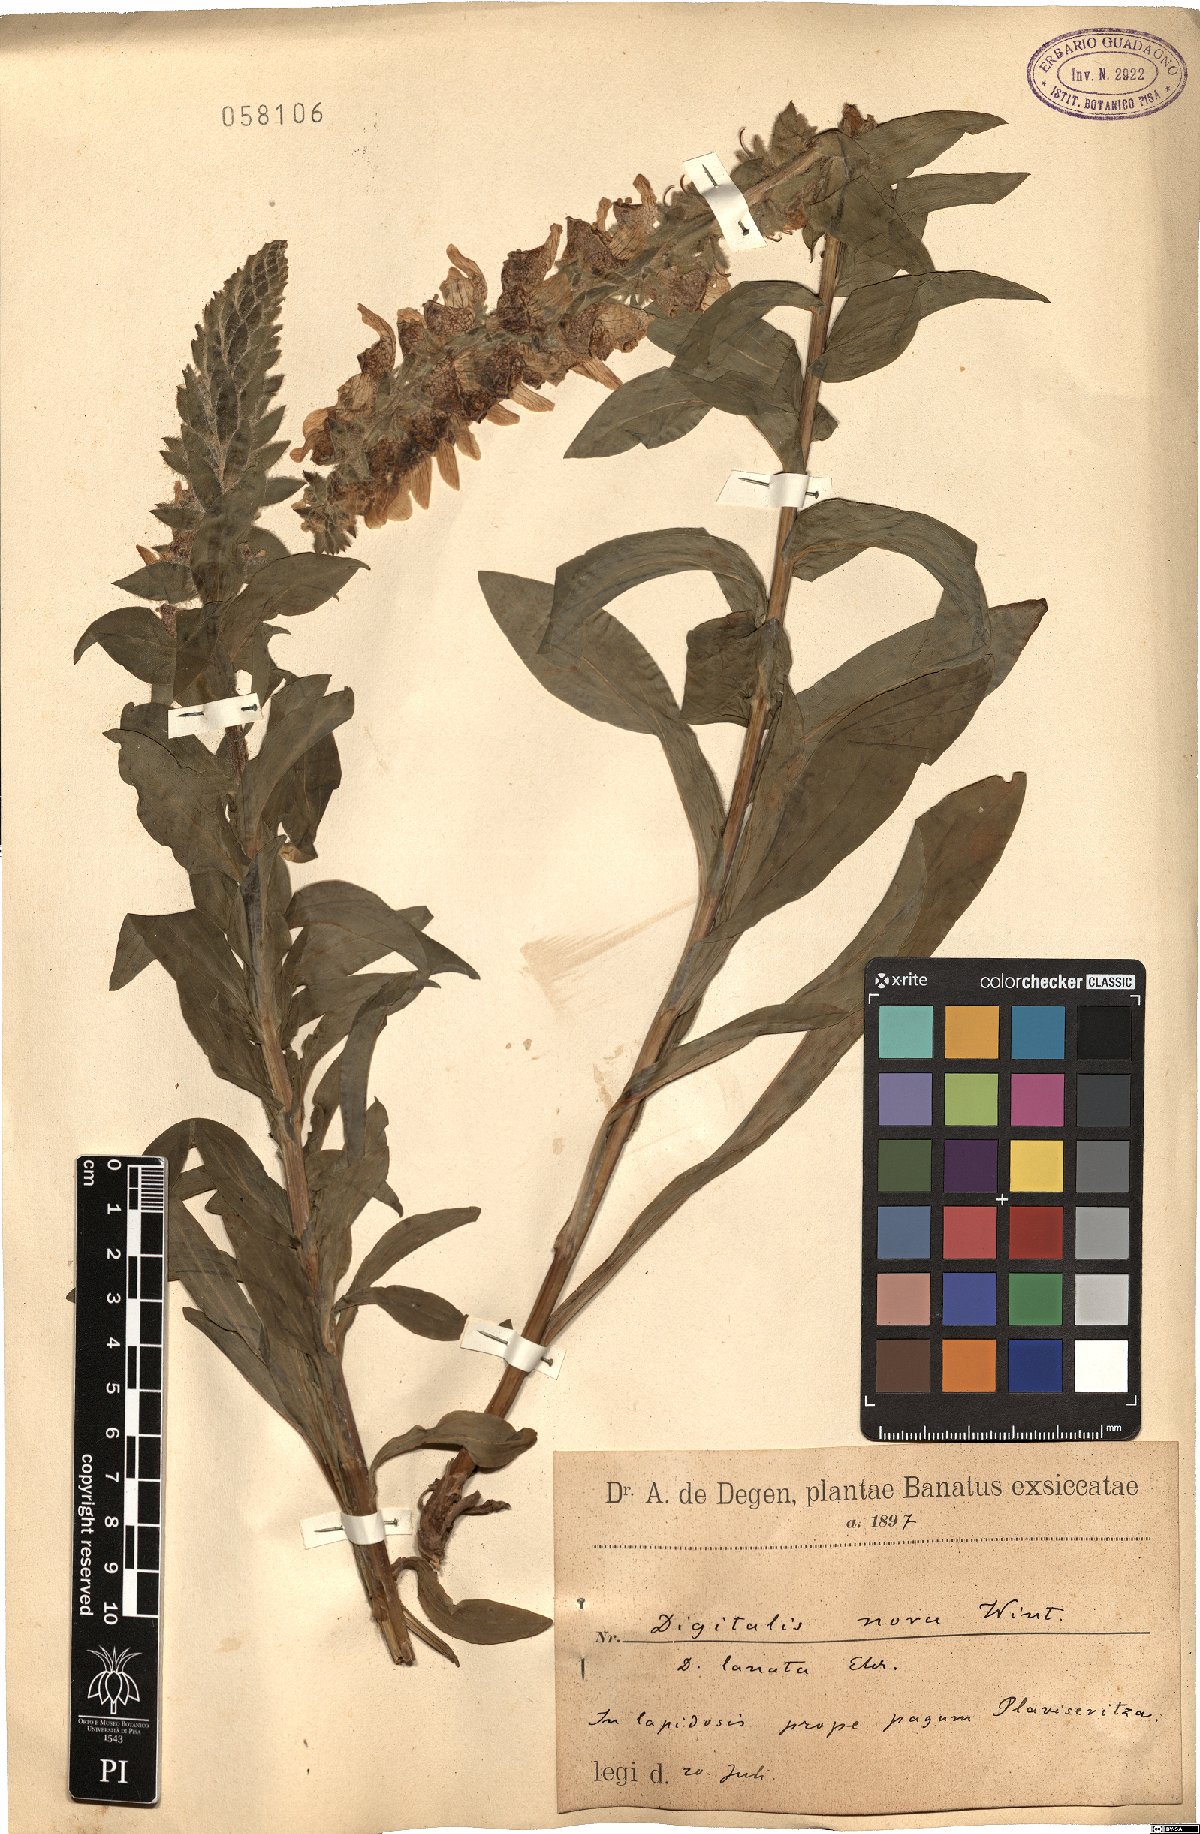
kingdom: Plantae
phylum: Tracheophyta
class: Magnoliopsida
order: Lamiales
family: Plantaginaceae
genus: Digitalis
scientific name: Digitalis lanata
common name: Grecian foxglove
